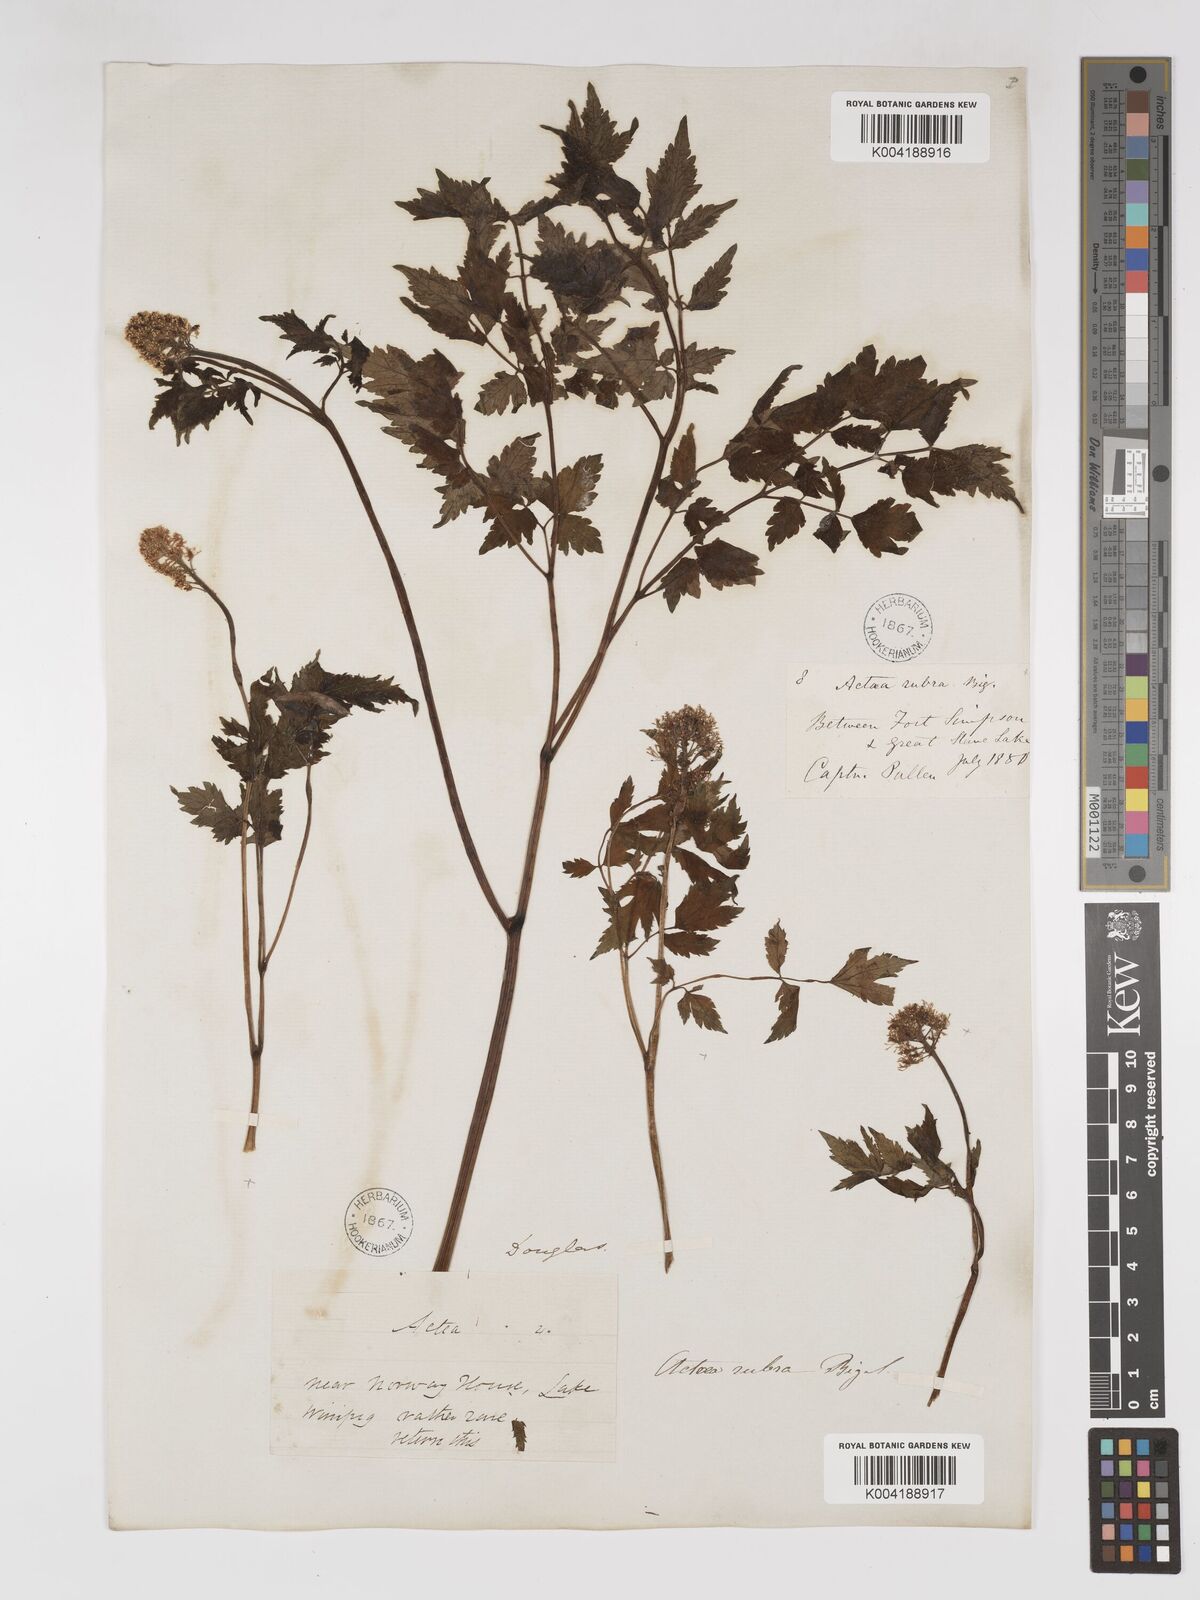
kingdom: Plantae
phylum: Tracheophyta
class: Magnoliopsida
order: Ranunculales
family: Ranunculaceae
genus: Actaea
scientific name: Actaea rubra
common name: Red baneberry
